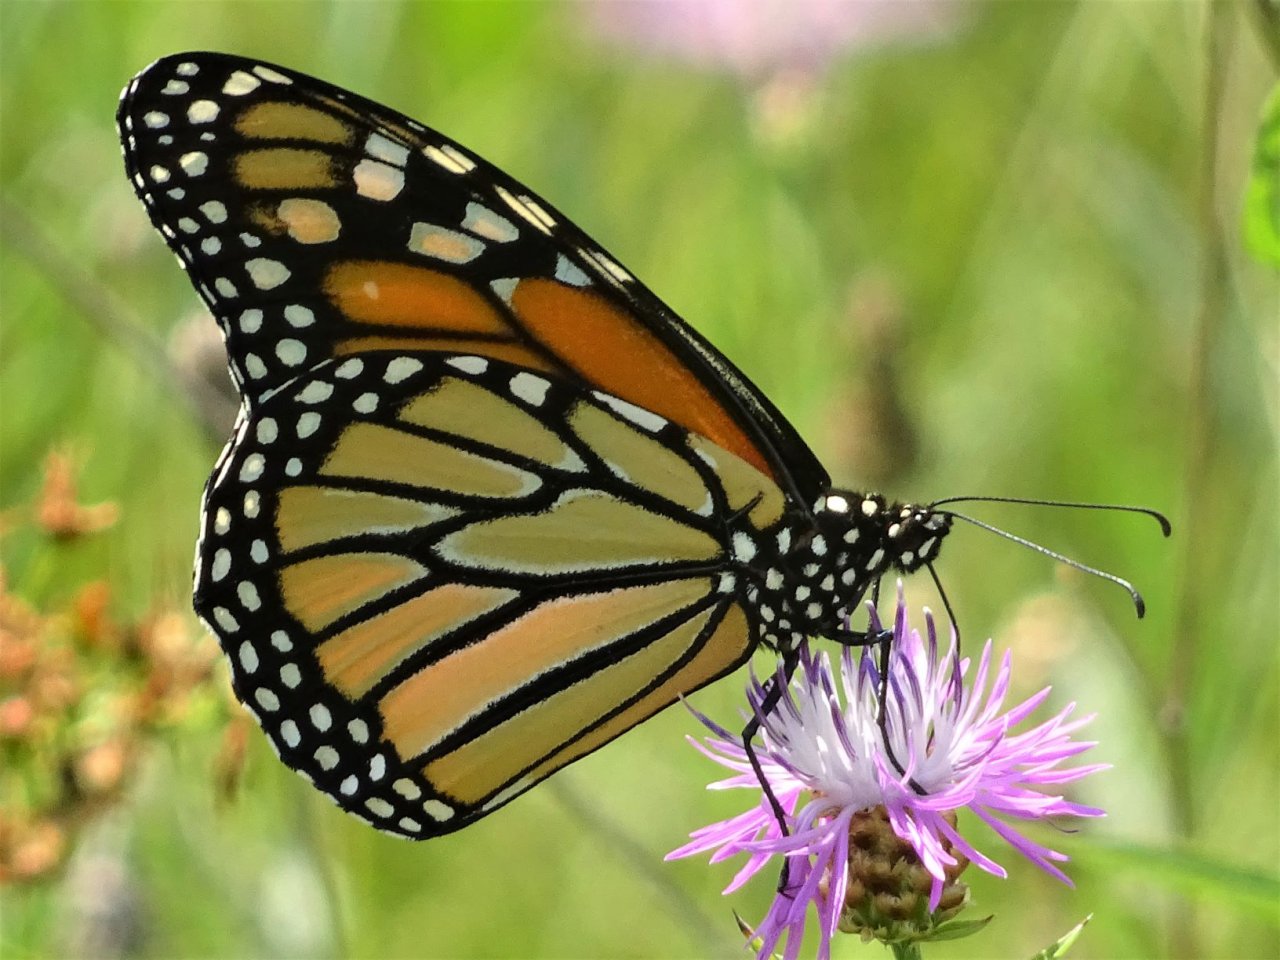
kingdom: Animalia
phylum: Arthropoda
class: Insecta
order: Lepidoptera
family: Nymphalidae
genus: Danaus
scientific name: Danaus plexippus
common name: Monarch
